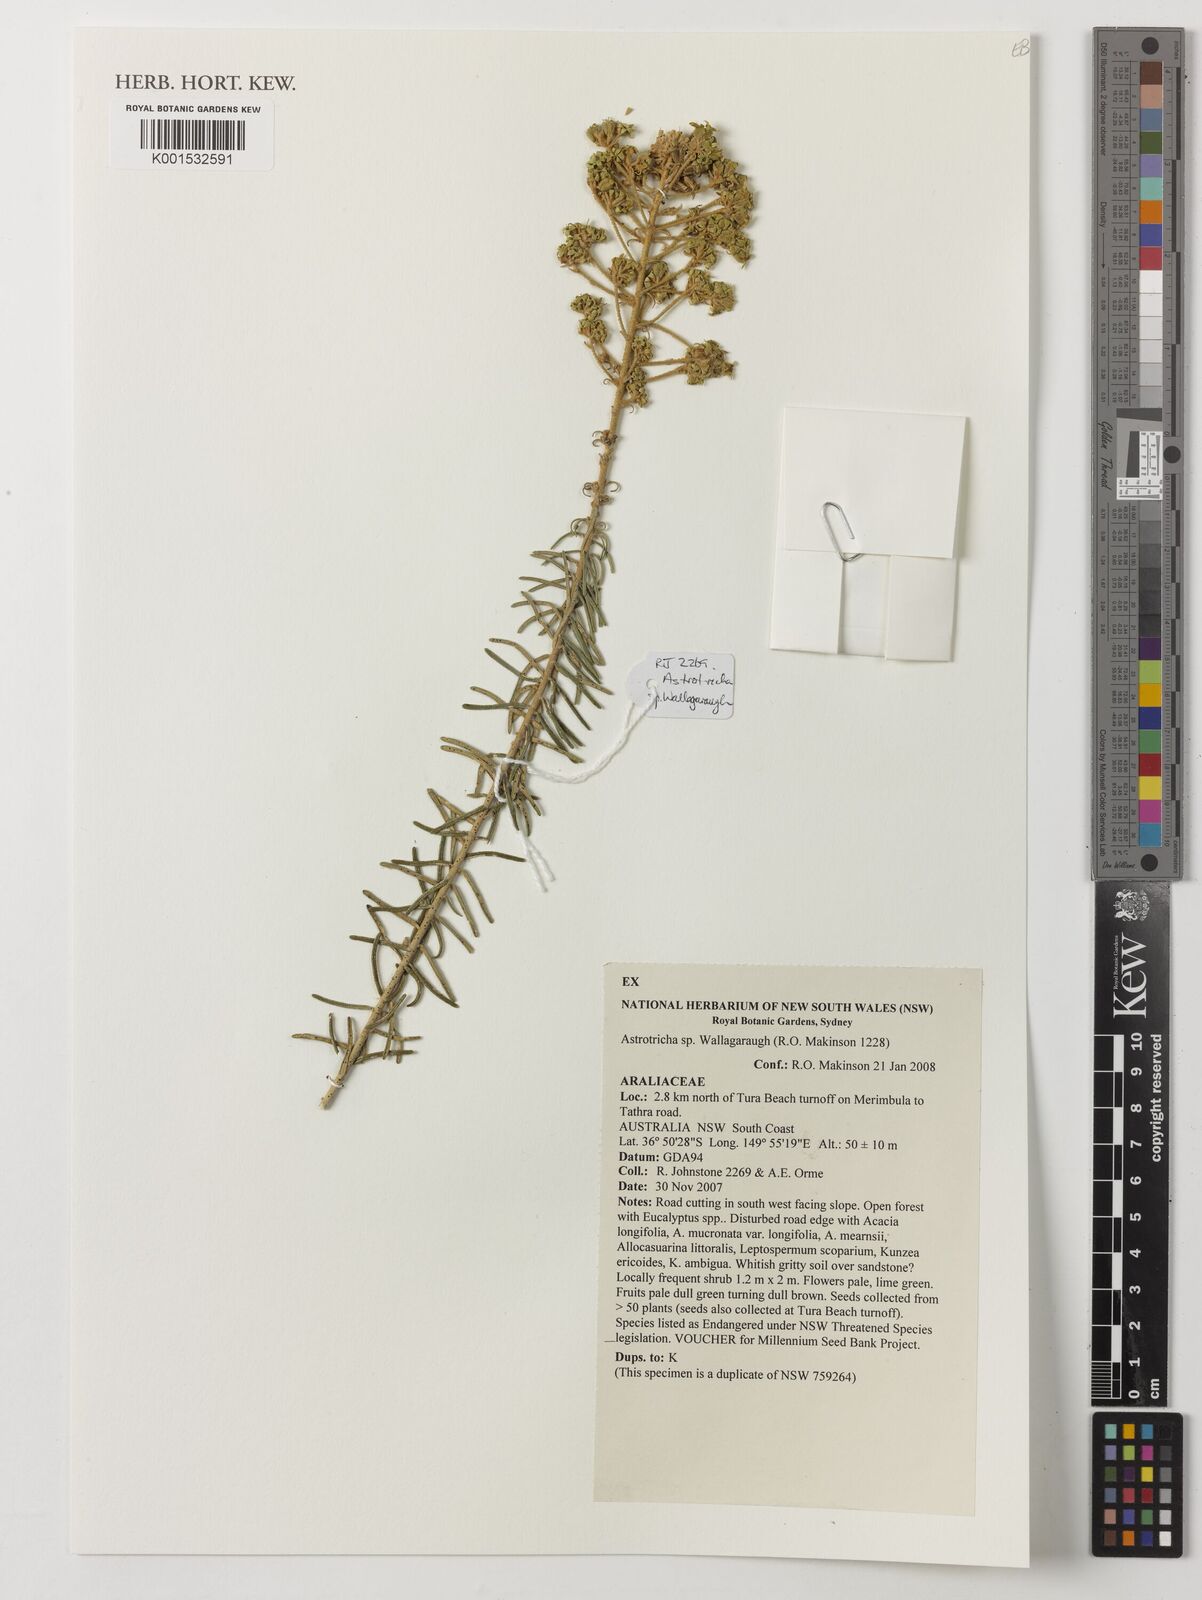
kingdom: Plantae
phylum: Tracheophyta
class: Magnoliopsida
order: Apiales
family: Araliaceae
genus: Astrotricha
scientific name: Astrotricha
